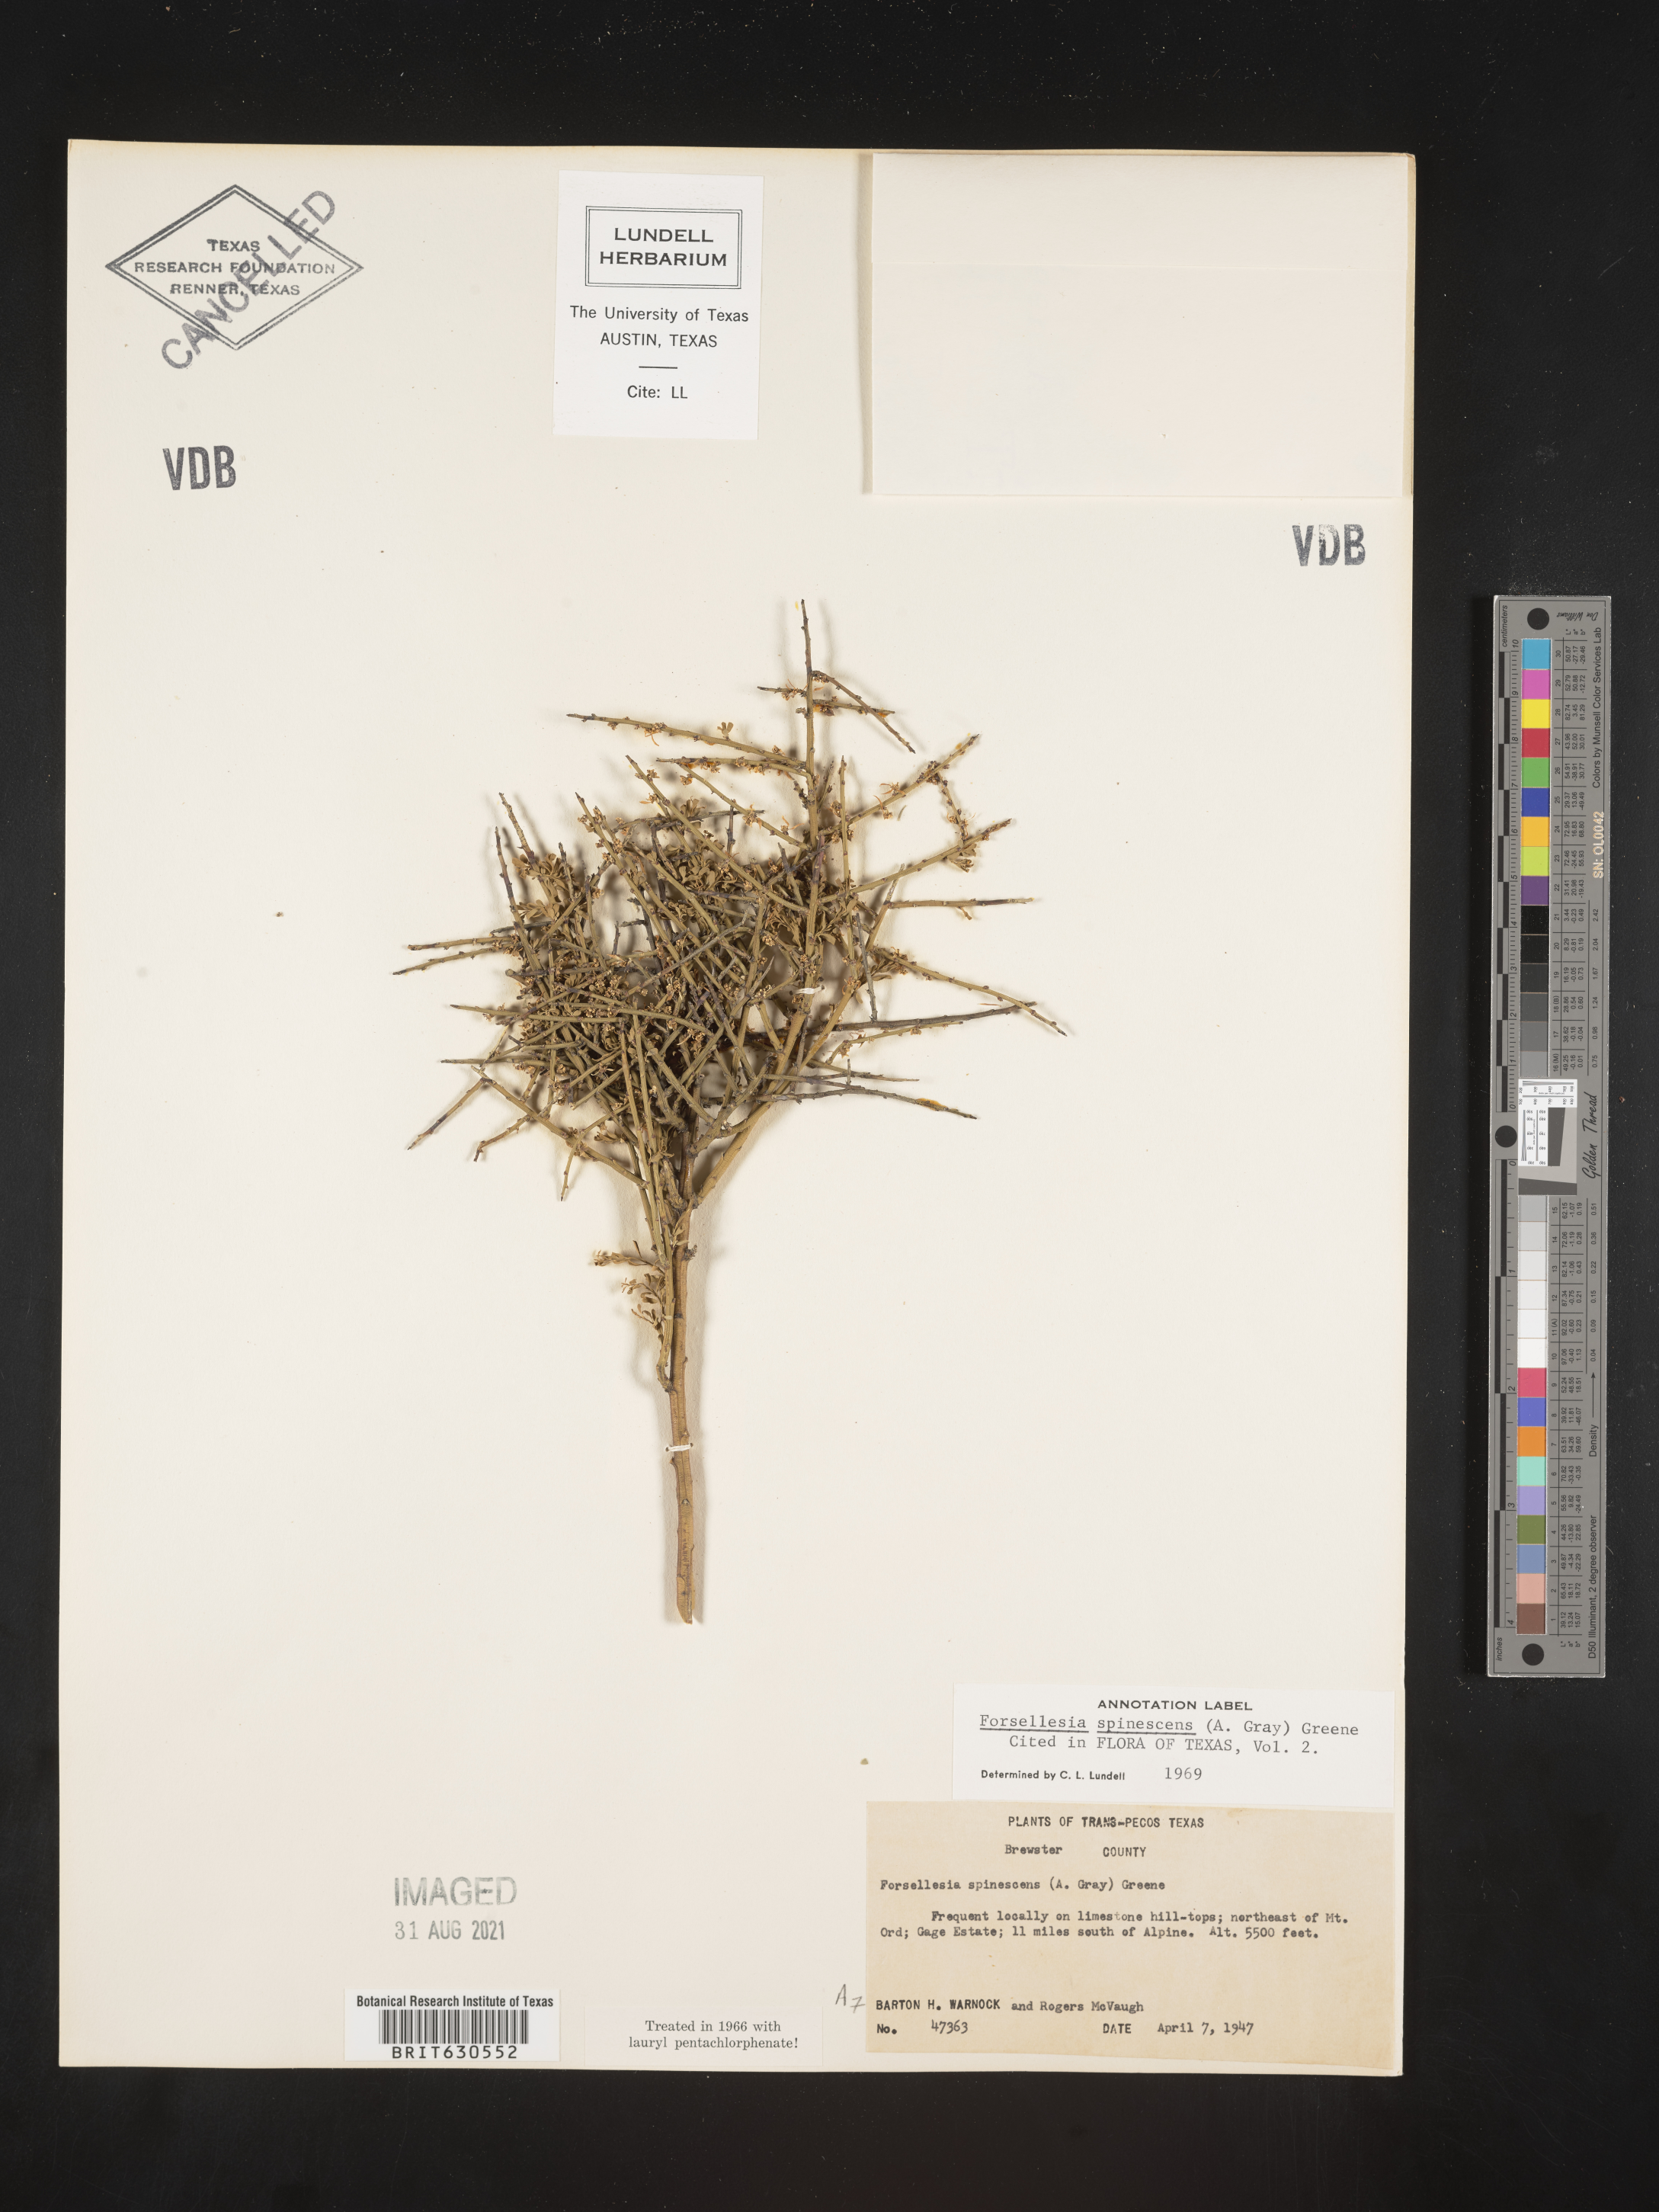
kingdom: Plantae
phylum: Tracheophyta
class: Magnoliopsida
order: Crossosomatales
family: Crossosomataceae
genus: Glossopetalon
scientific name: Glossopetalon spinescens
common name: Spring greasebush
